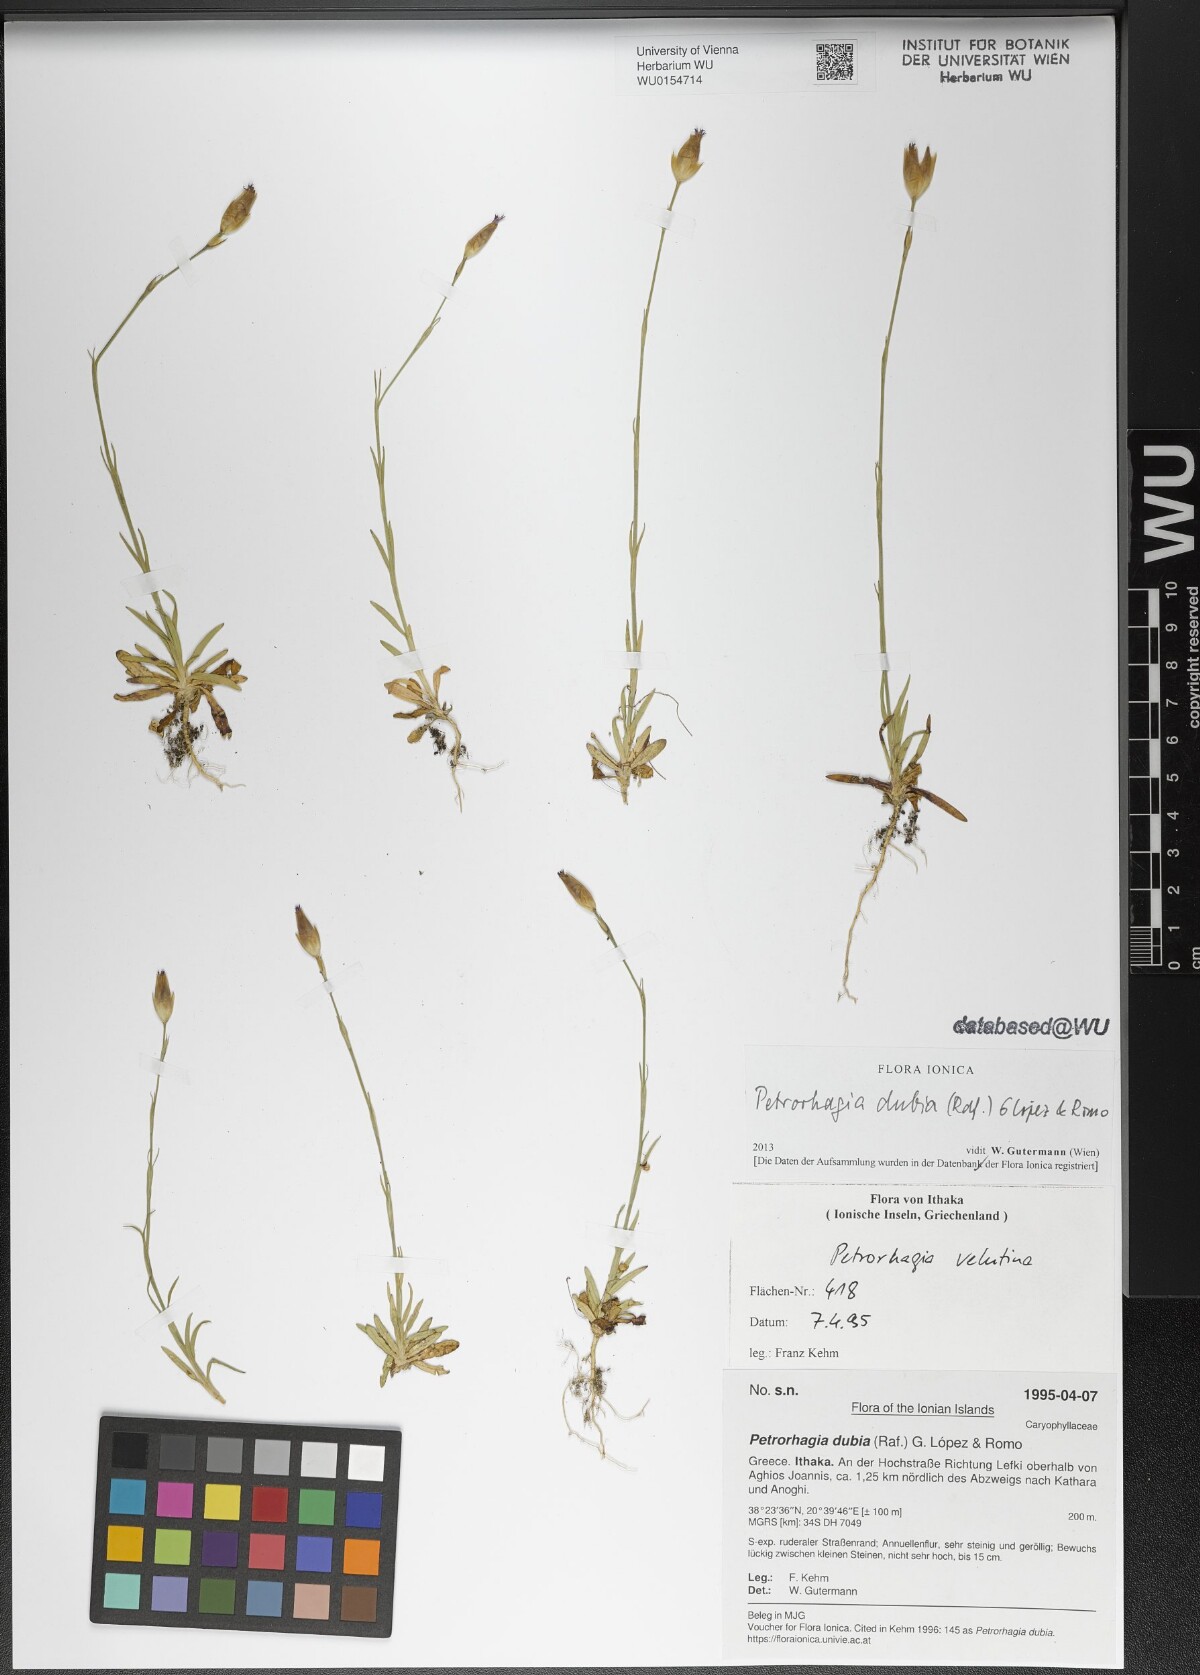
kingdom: Plantae
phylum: Tracheophyta
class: Magnoliopsida
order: Caryophyllales
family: Caryophyllaceae
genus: Petrorhagia
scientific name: Petrorhagia dubia
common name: Hairypink
